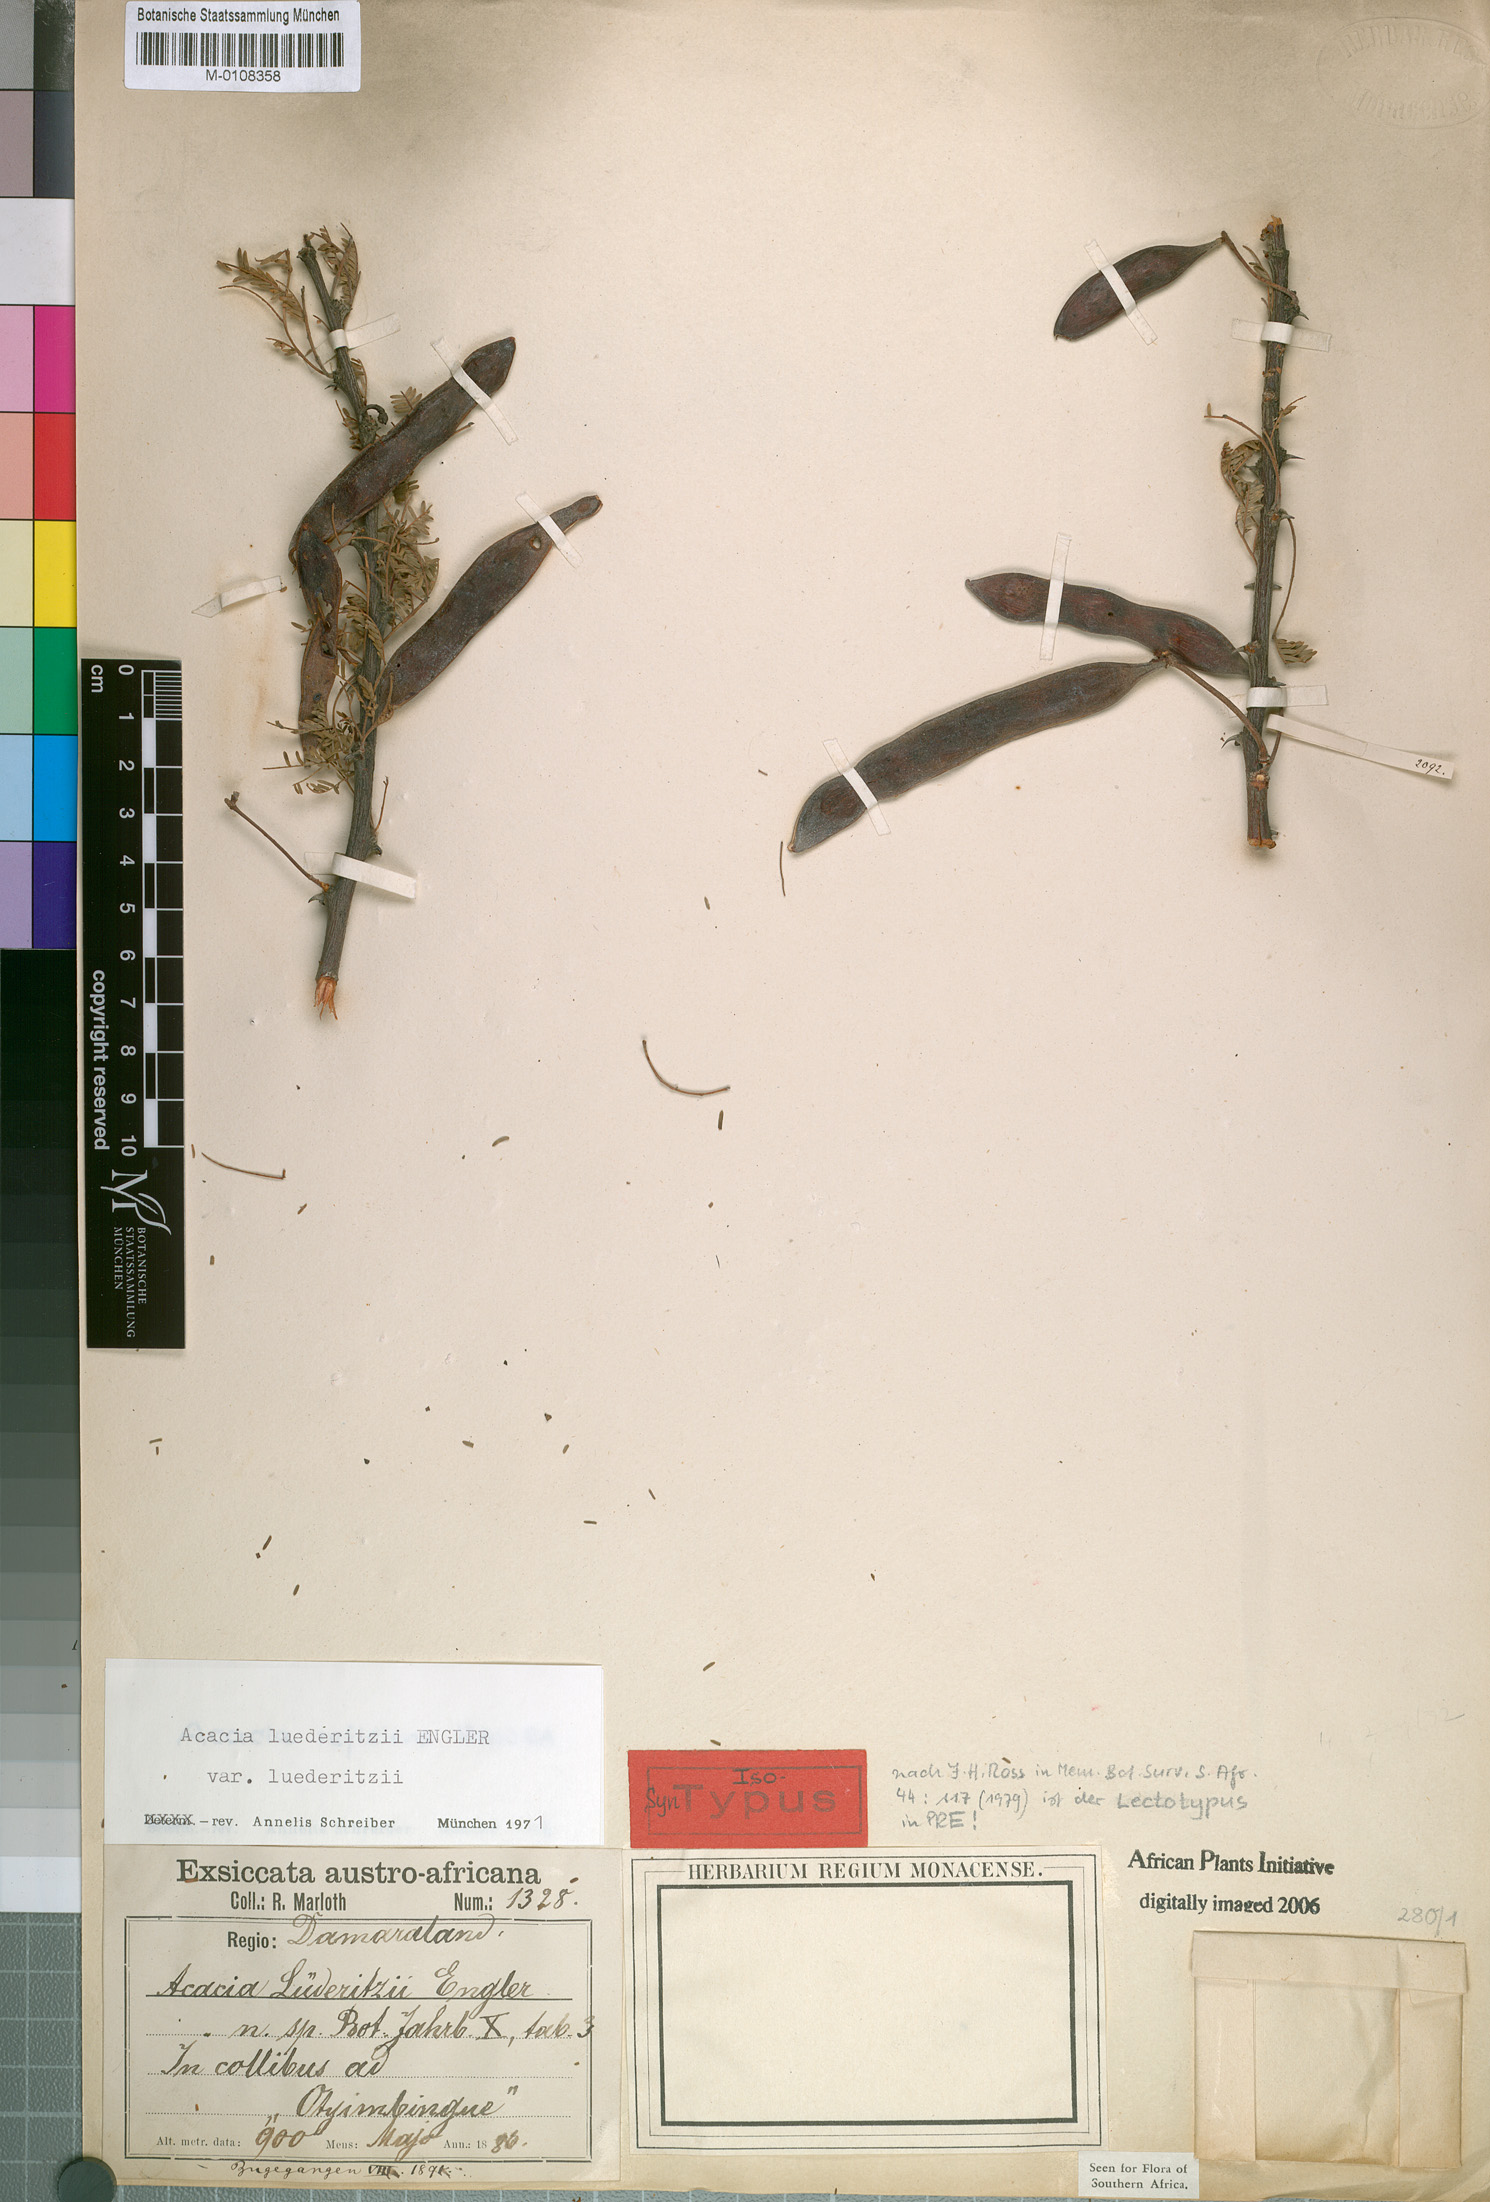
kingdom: Plantae
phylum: Tracheophyta
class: Magnoliopsida
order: Fabales
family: Fabaceae
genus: Vachellia
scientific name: Vachellia
